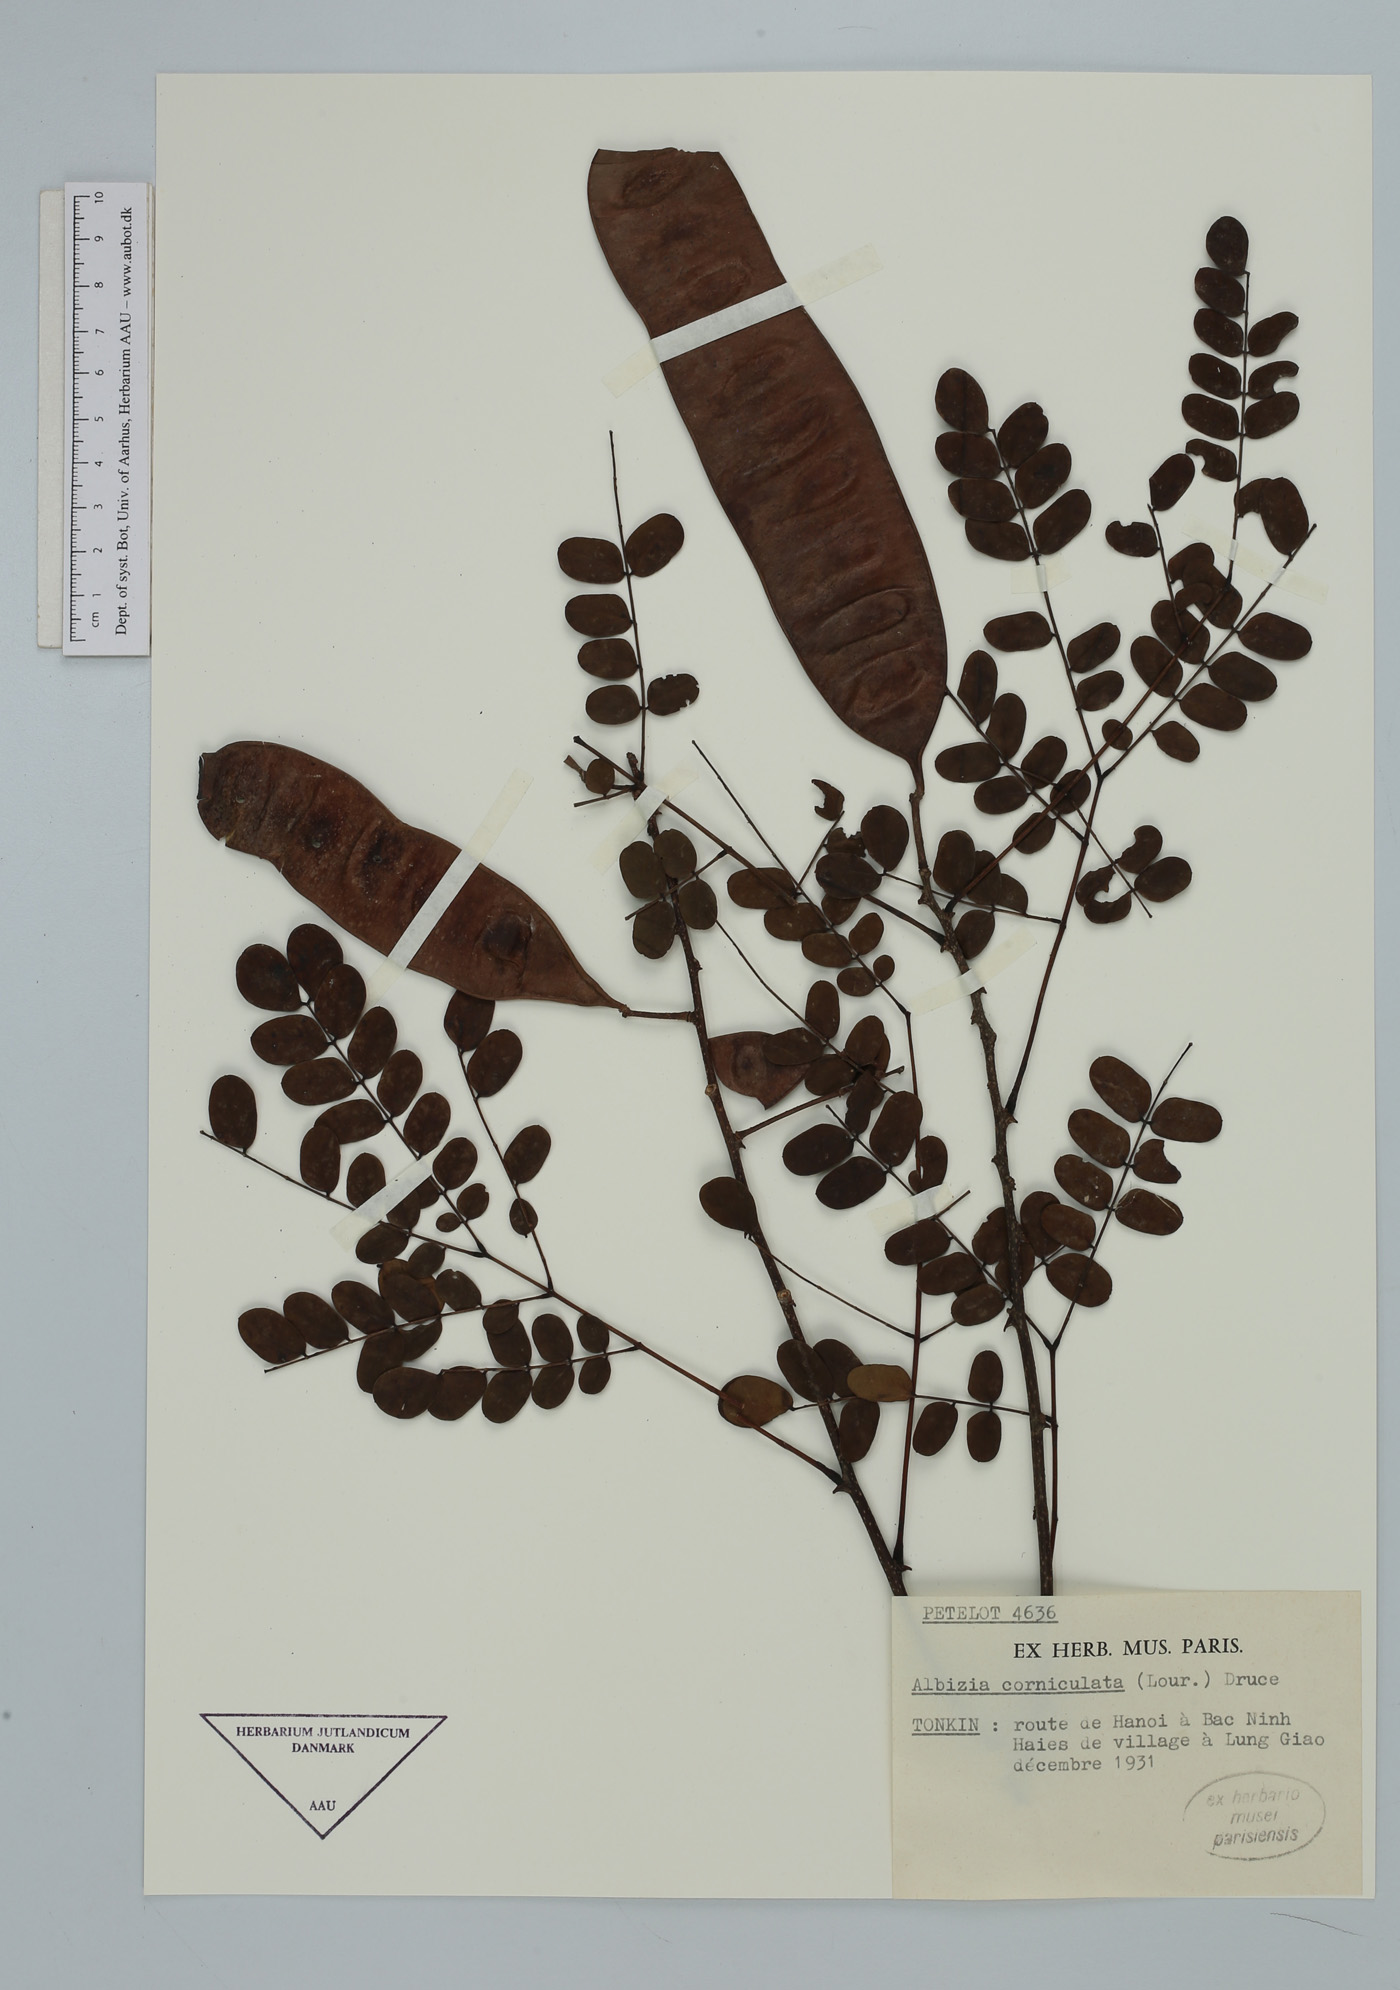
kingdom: Plantae
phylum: Tracheophyta
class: Magnoliopsida
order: Fabales
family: Fabaceae
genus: Albizia
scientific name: Albizia corniculata
